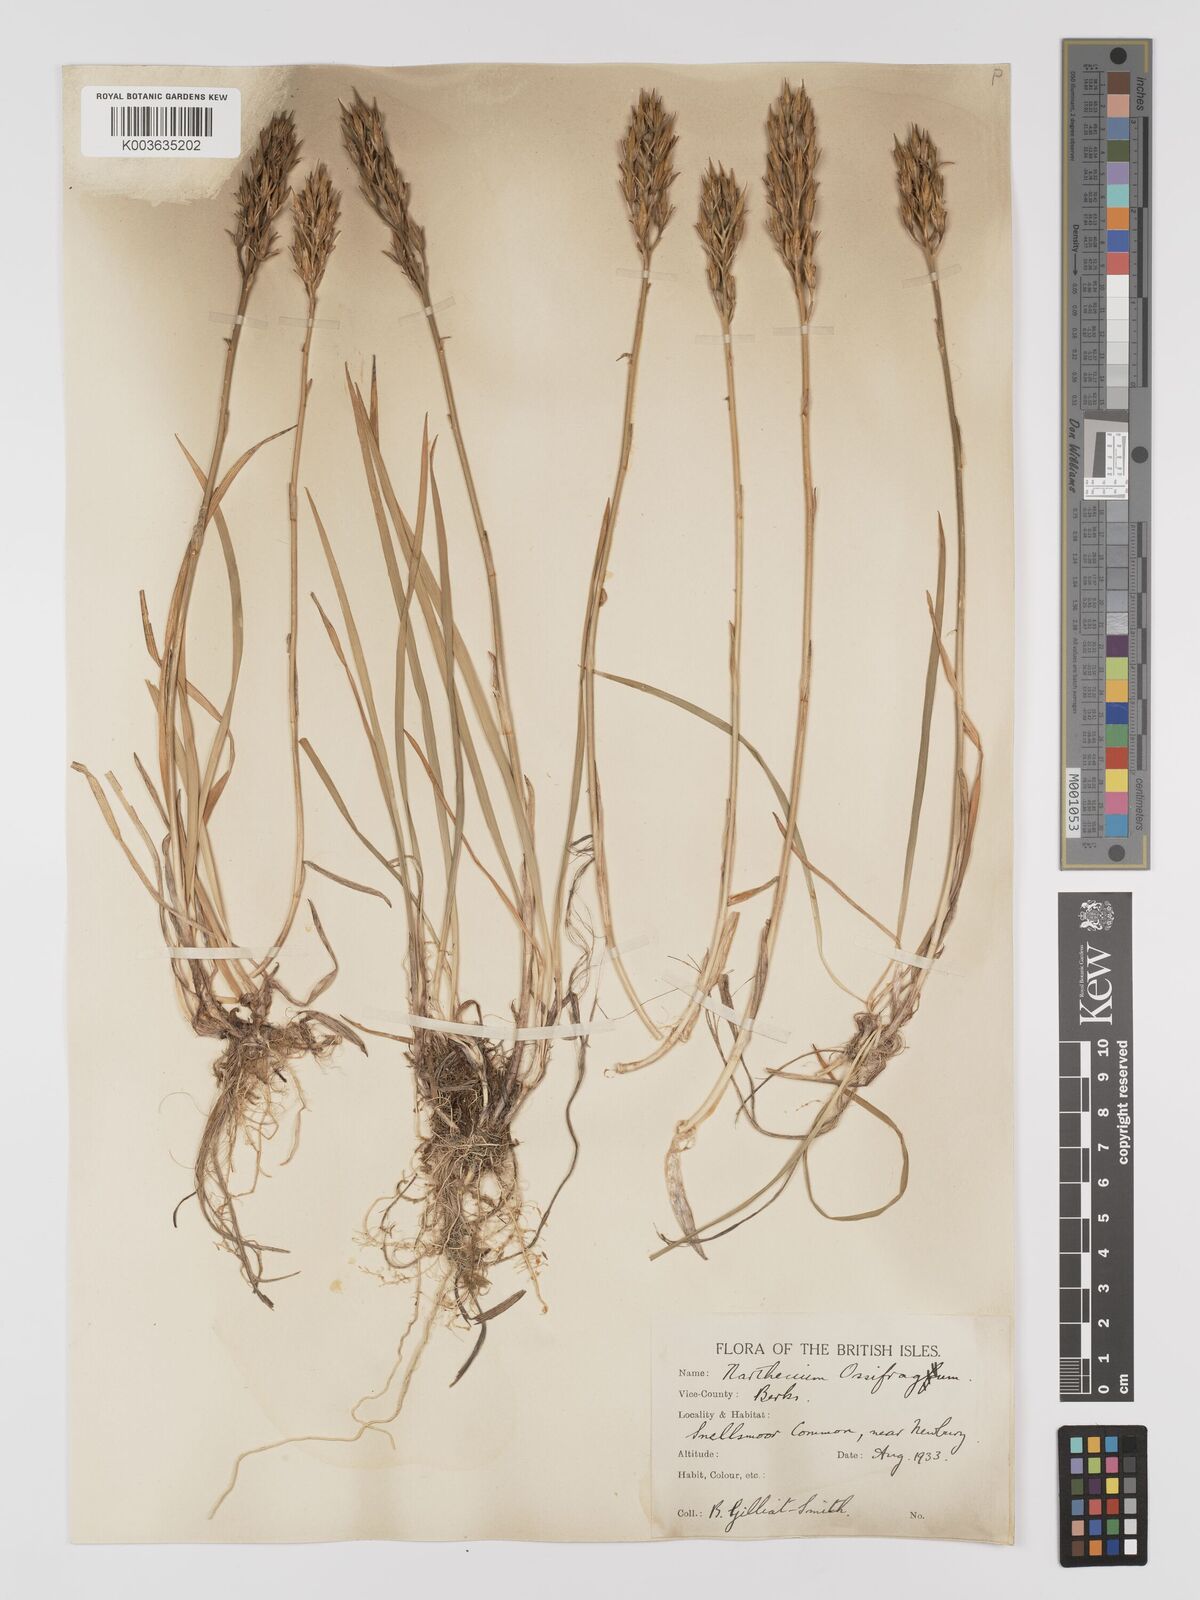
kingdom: Plantae
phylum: Tracheophyta
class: Liliopsida
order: Dioscoreales
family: Nartheciaceae
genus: Narthecium
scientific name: Narthecium
